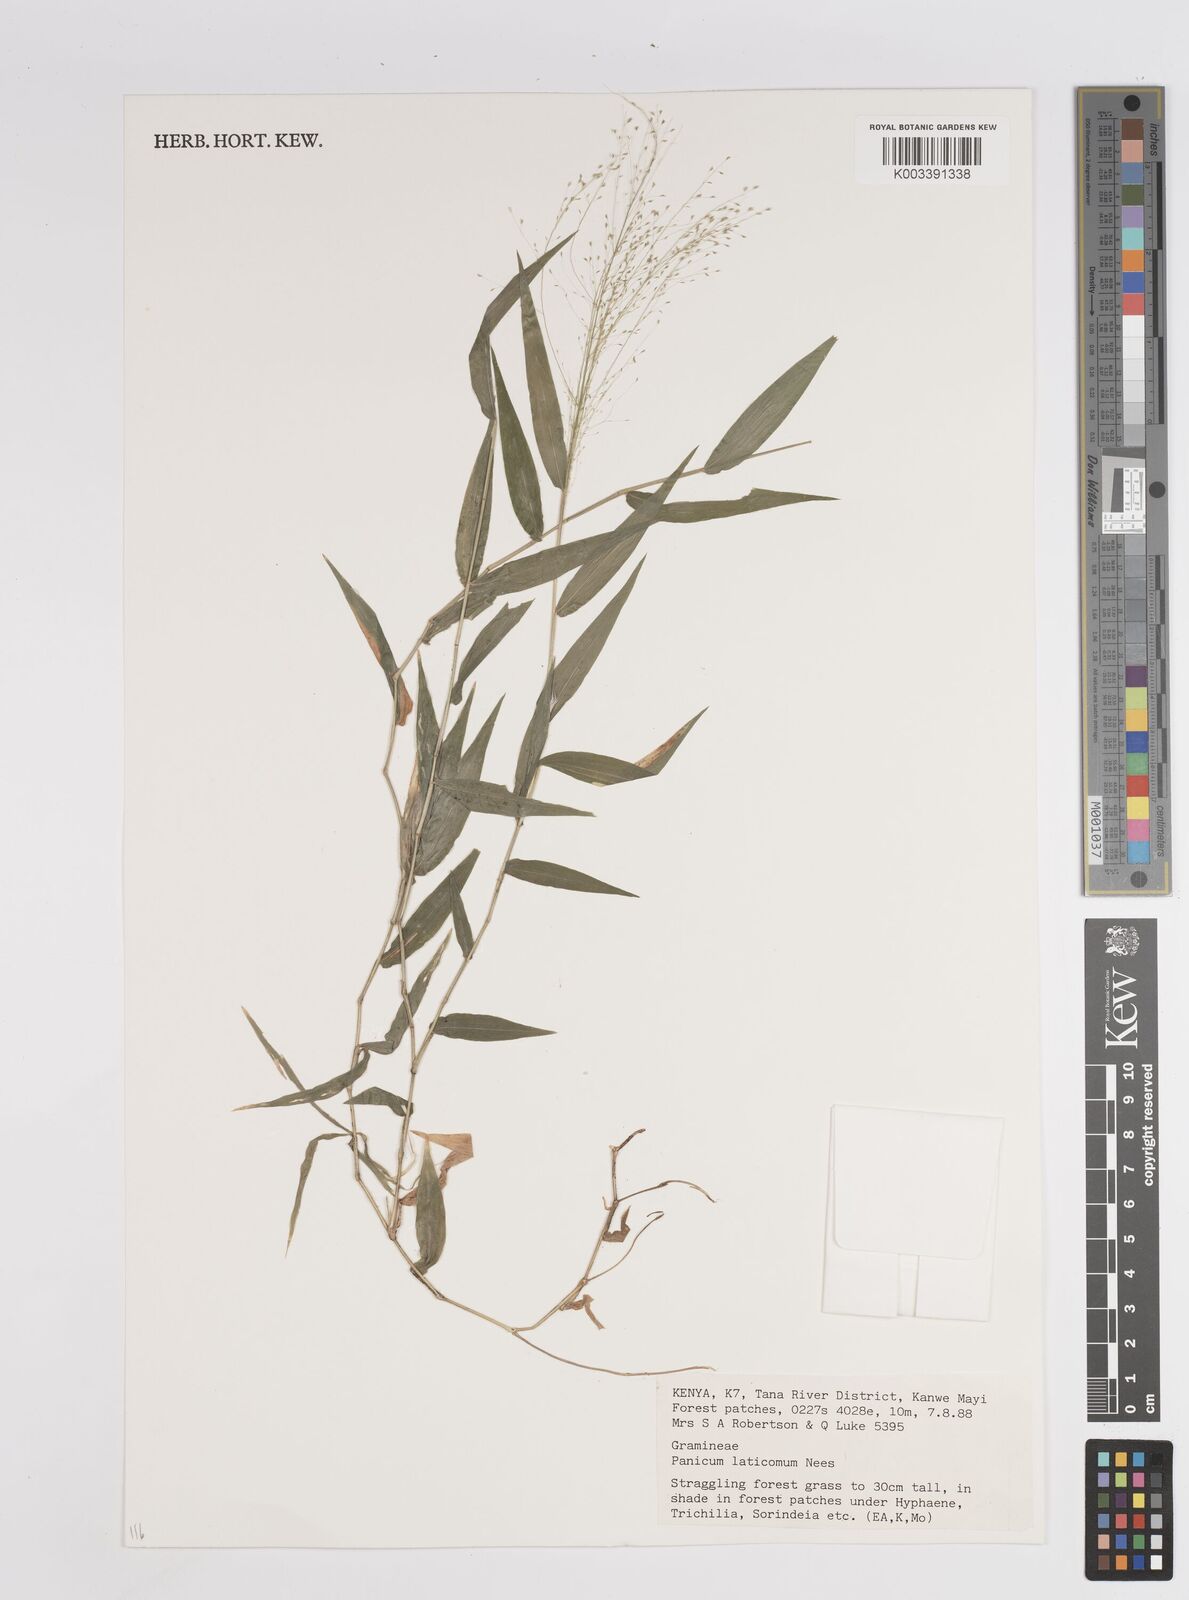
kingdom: Plantae
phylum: Tracheophyta
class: Liliopsida
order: Poales
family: Poaceae
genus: Panicum
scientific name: Panicum laticomum
